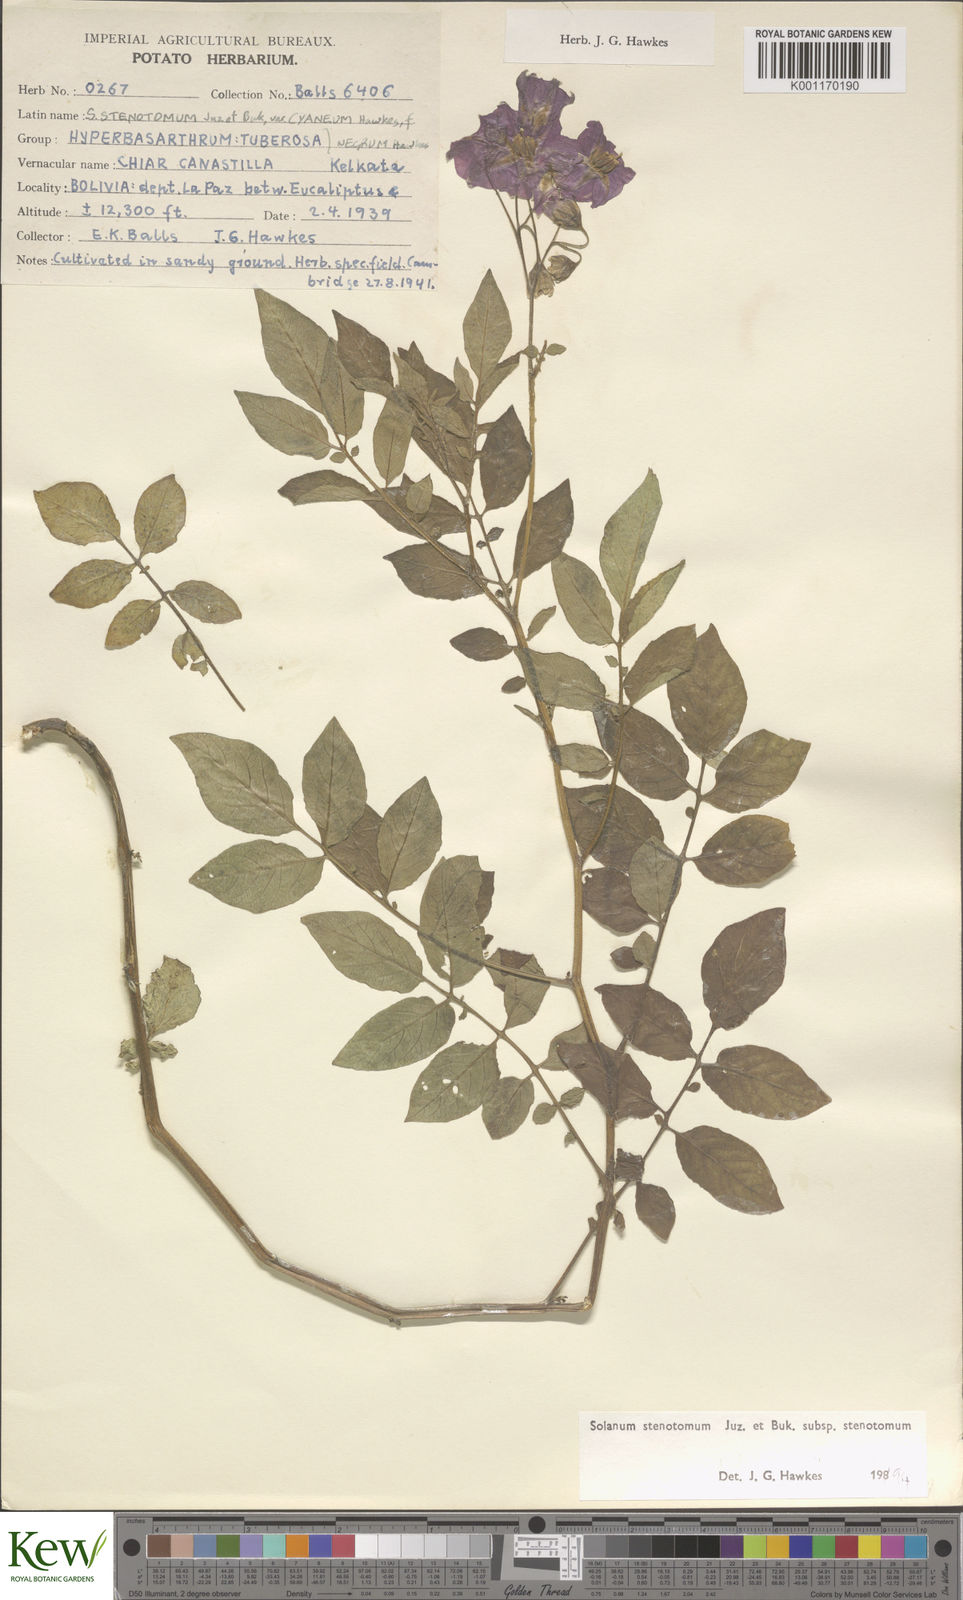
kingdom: Plantae
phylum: Tracheophyta
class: Magnoliopsida
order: Solanales
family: Solanaceae
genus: Solanum
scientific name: Solanum tuberosum
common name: Potato
